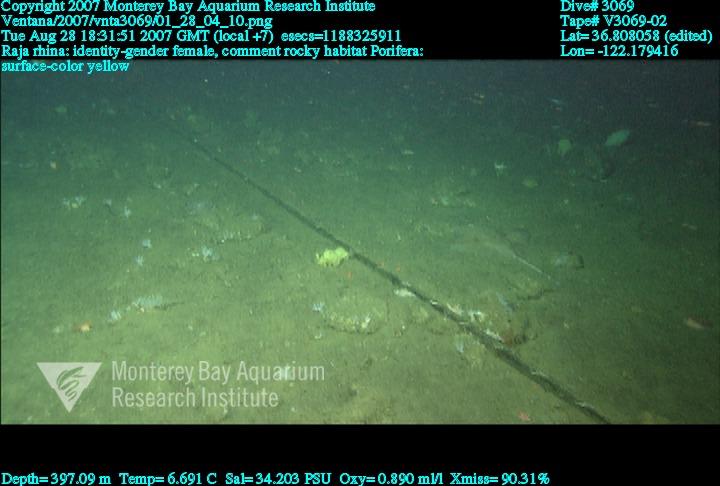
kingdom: Animalia
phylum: Porifera
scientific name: Porifera
